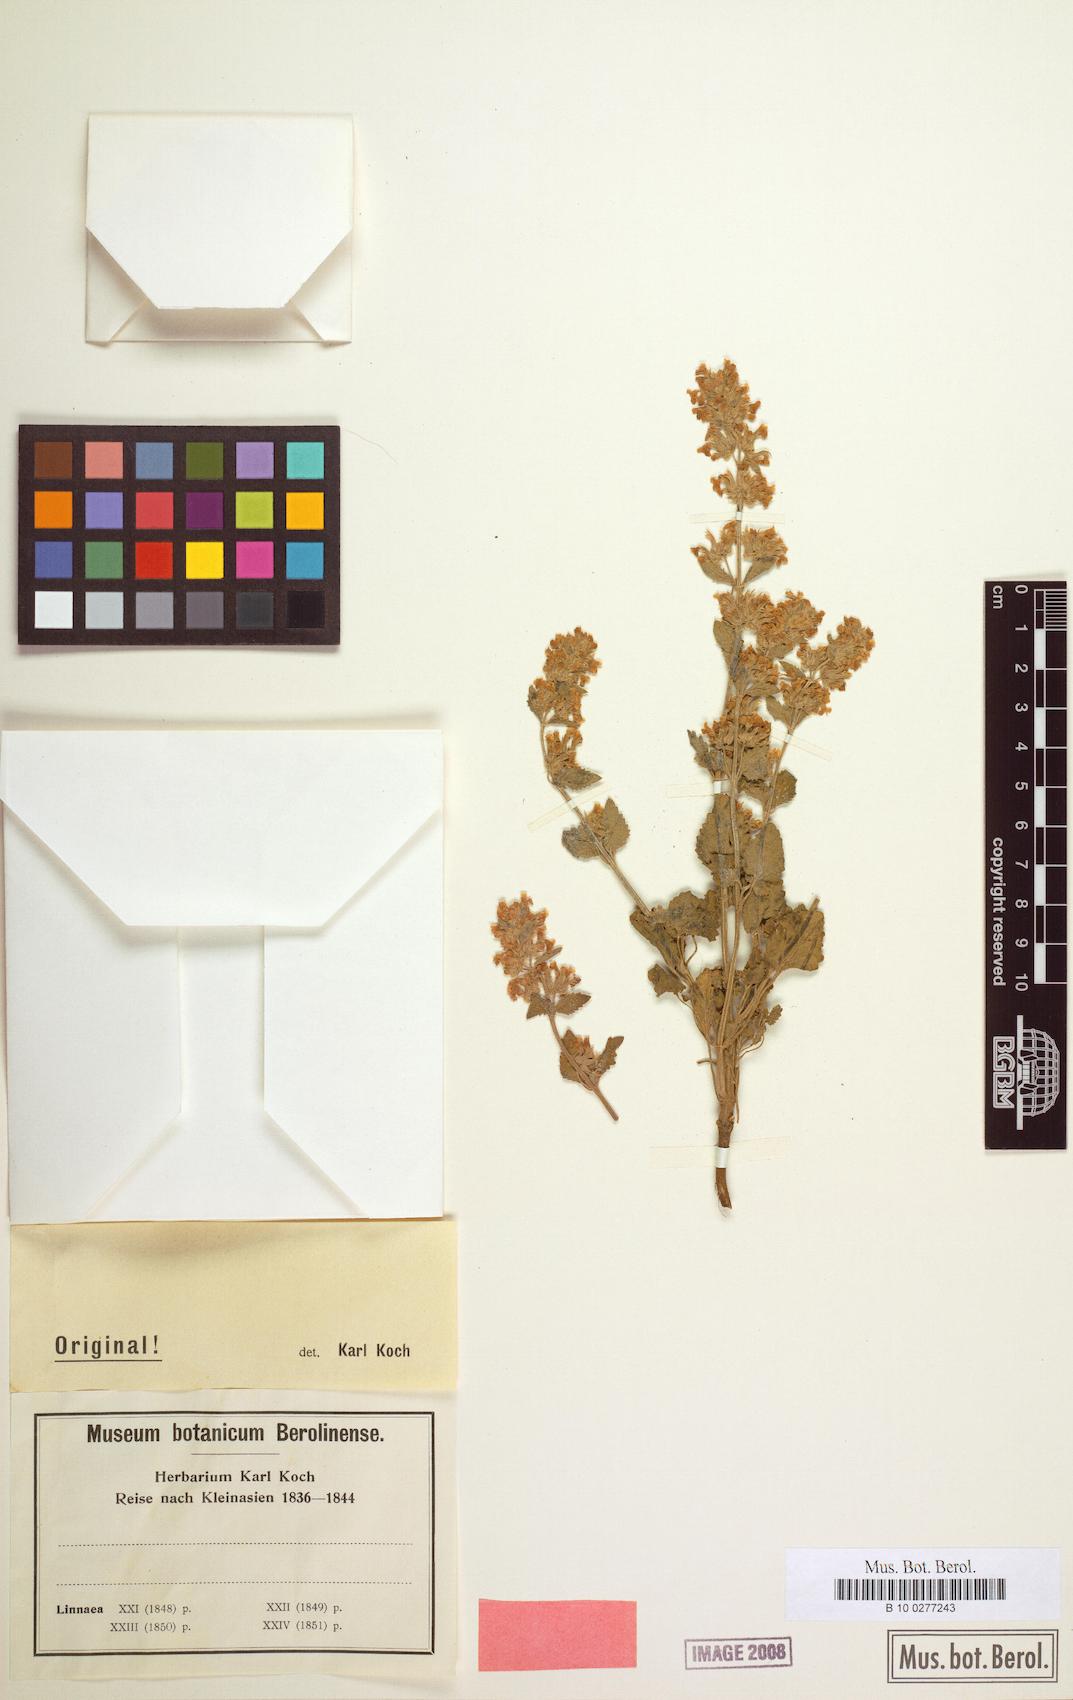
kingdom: Plantae
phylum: Tracheophyta
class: Magnoliopsida
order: Lamiales
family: Lamiaceae
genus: Nepeta
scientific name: Nepeta meyeri
